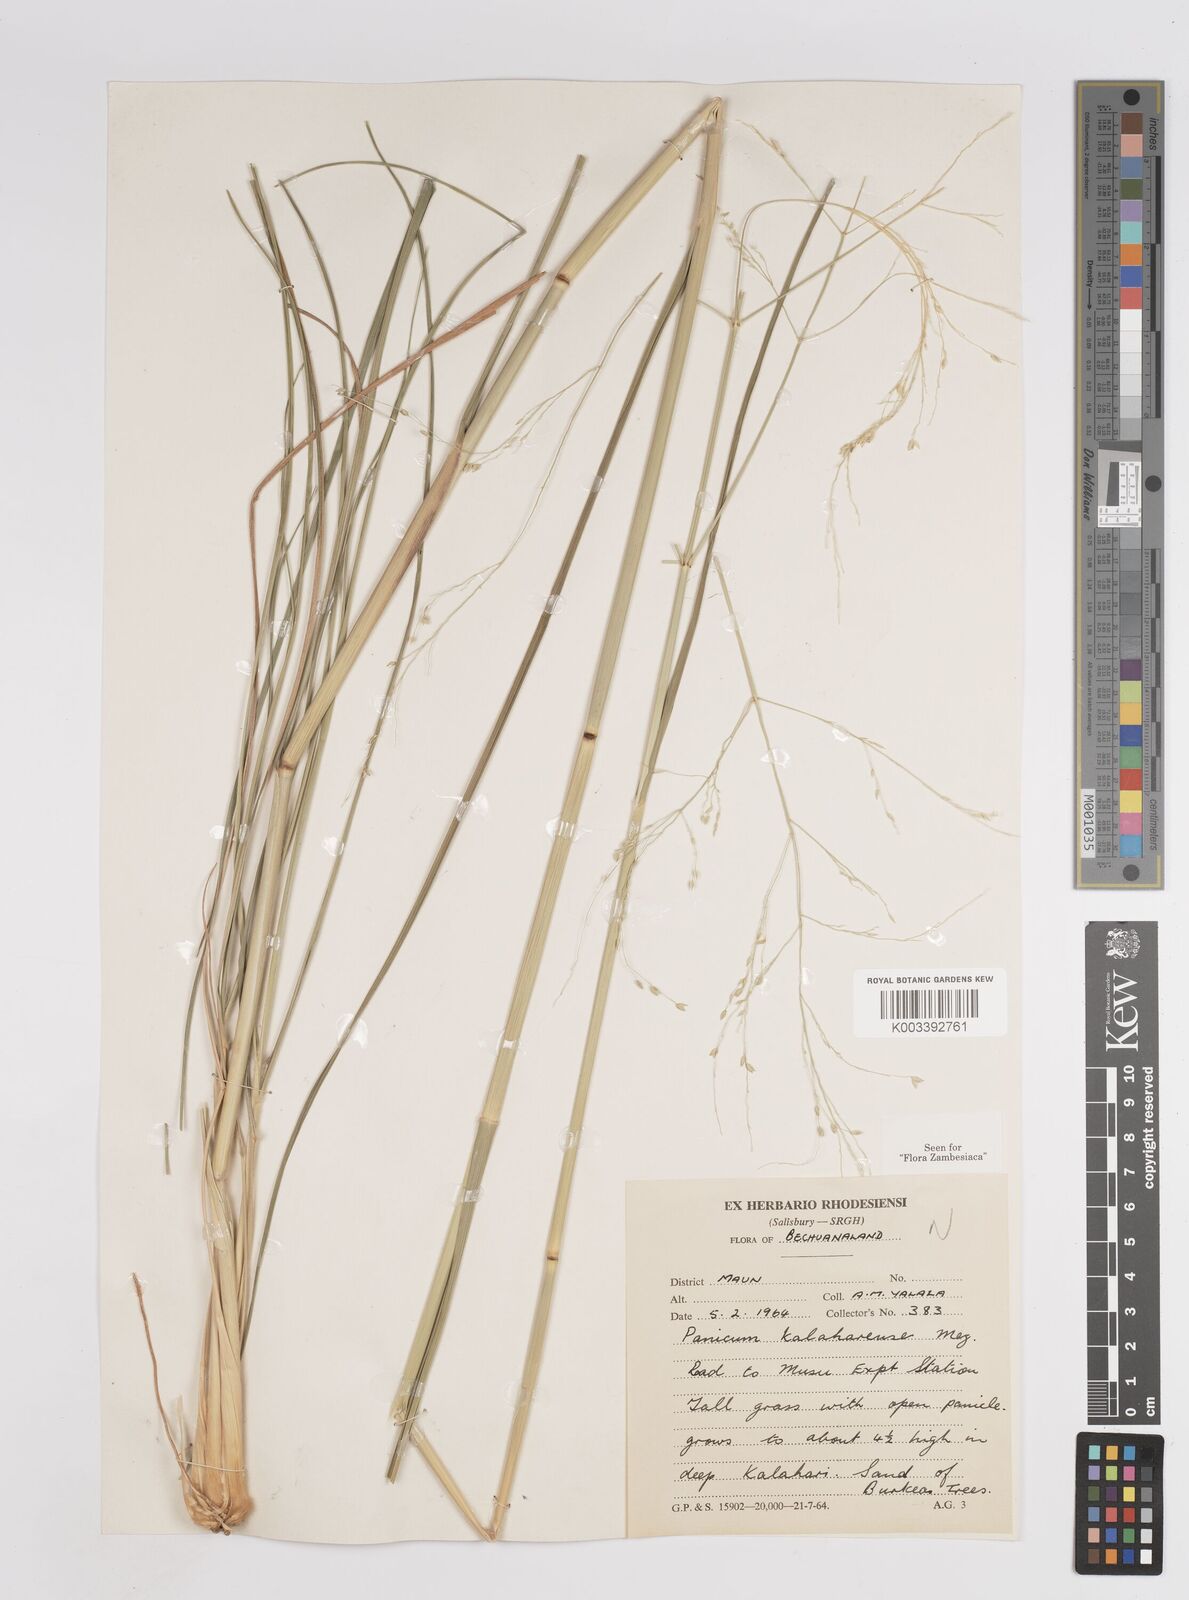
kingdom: Plantae
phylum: Tracheophyta
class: Liliopsida
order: Poales
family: Poaceae
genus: Panicum
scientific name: Panicum kalaharense
